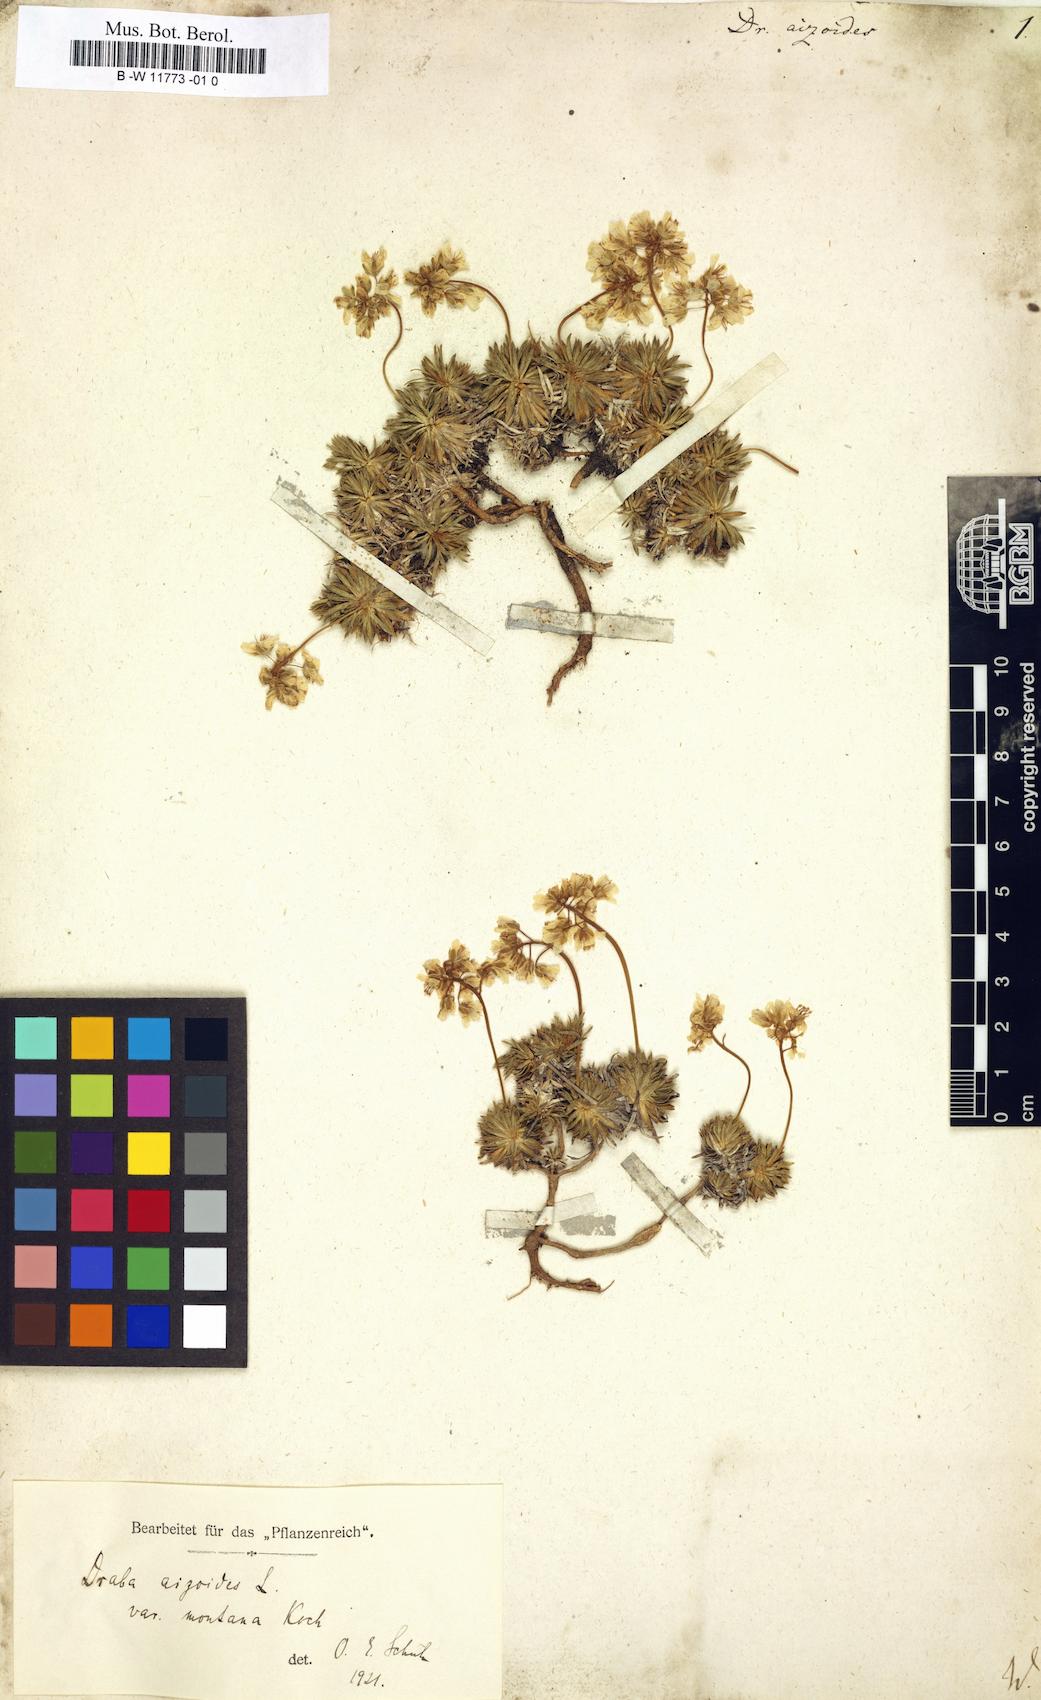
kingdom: Plantae
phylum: Tracheophyta
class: Magnoliopsida
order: Brassicales
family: Brassicaceae
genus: Draba
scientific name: Draba aizoides
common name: Yellow whitlowgrass
